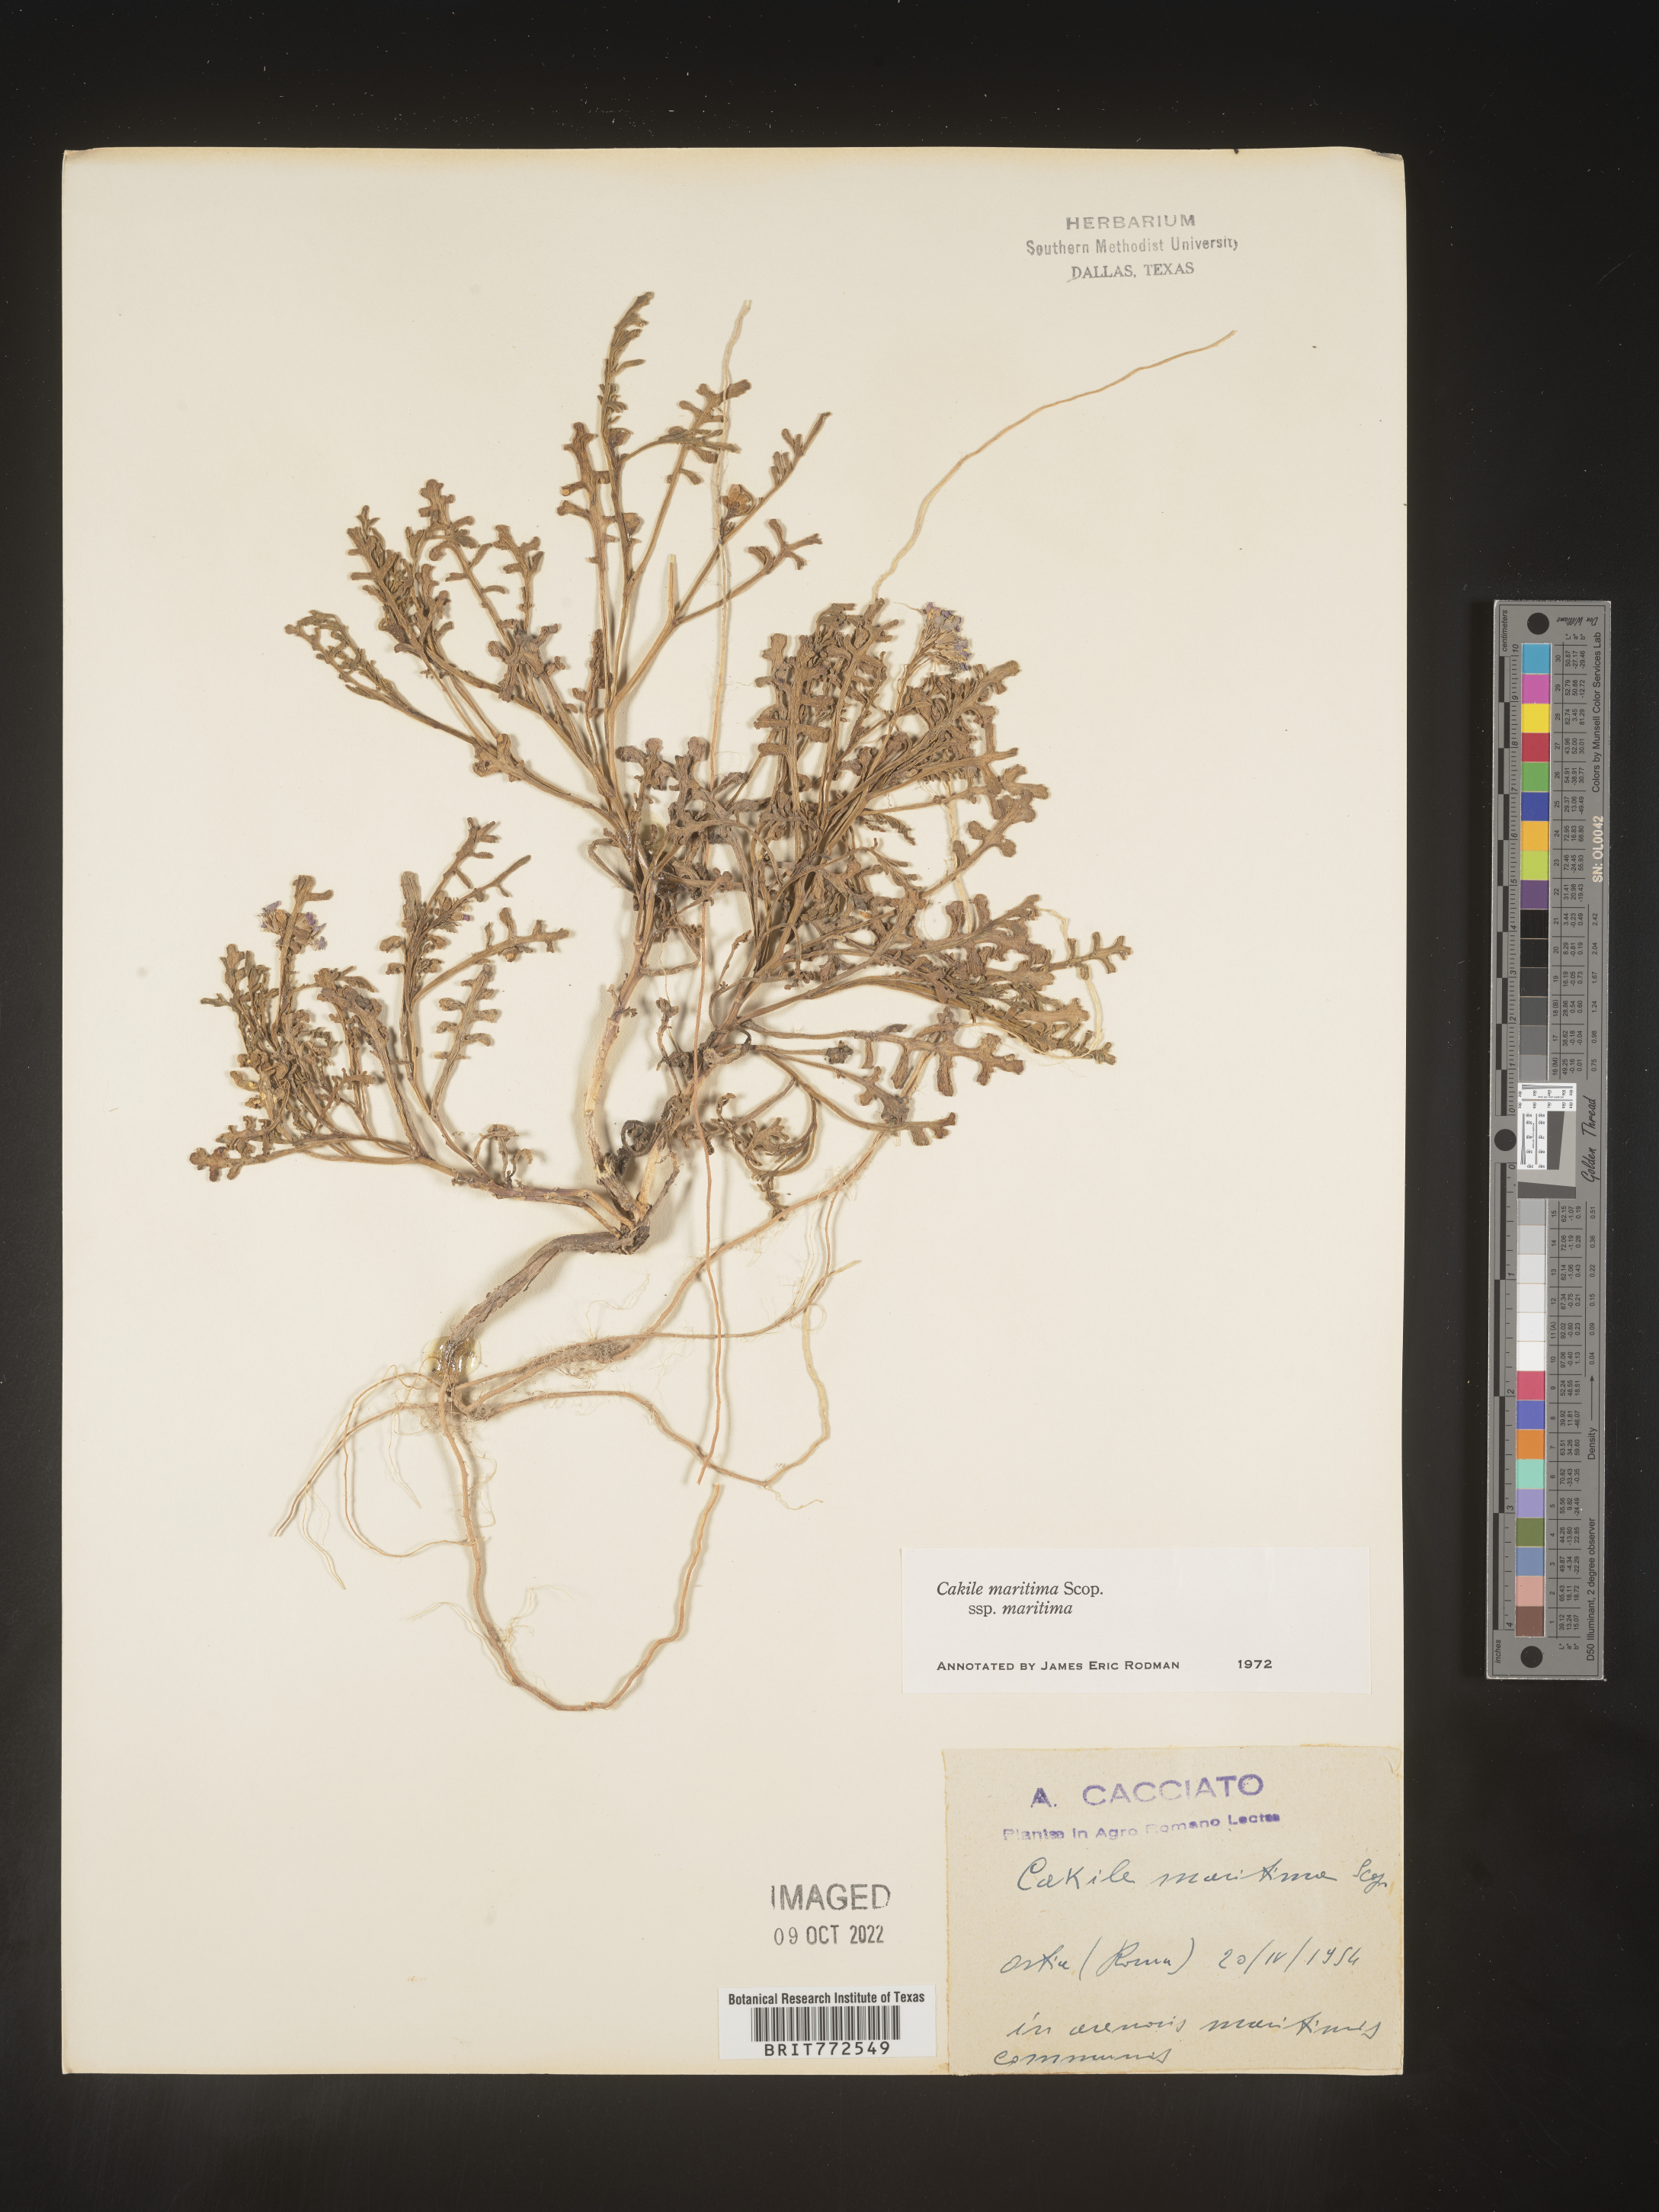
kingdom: Plantae
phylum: Tracheophyta
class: Magnoliopsida
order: Brassicales
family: Brassicaceae
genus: Cakile
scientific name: Cakile
